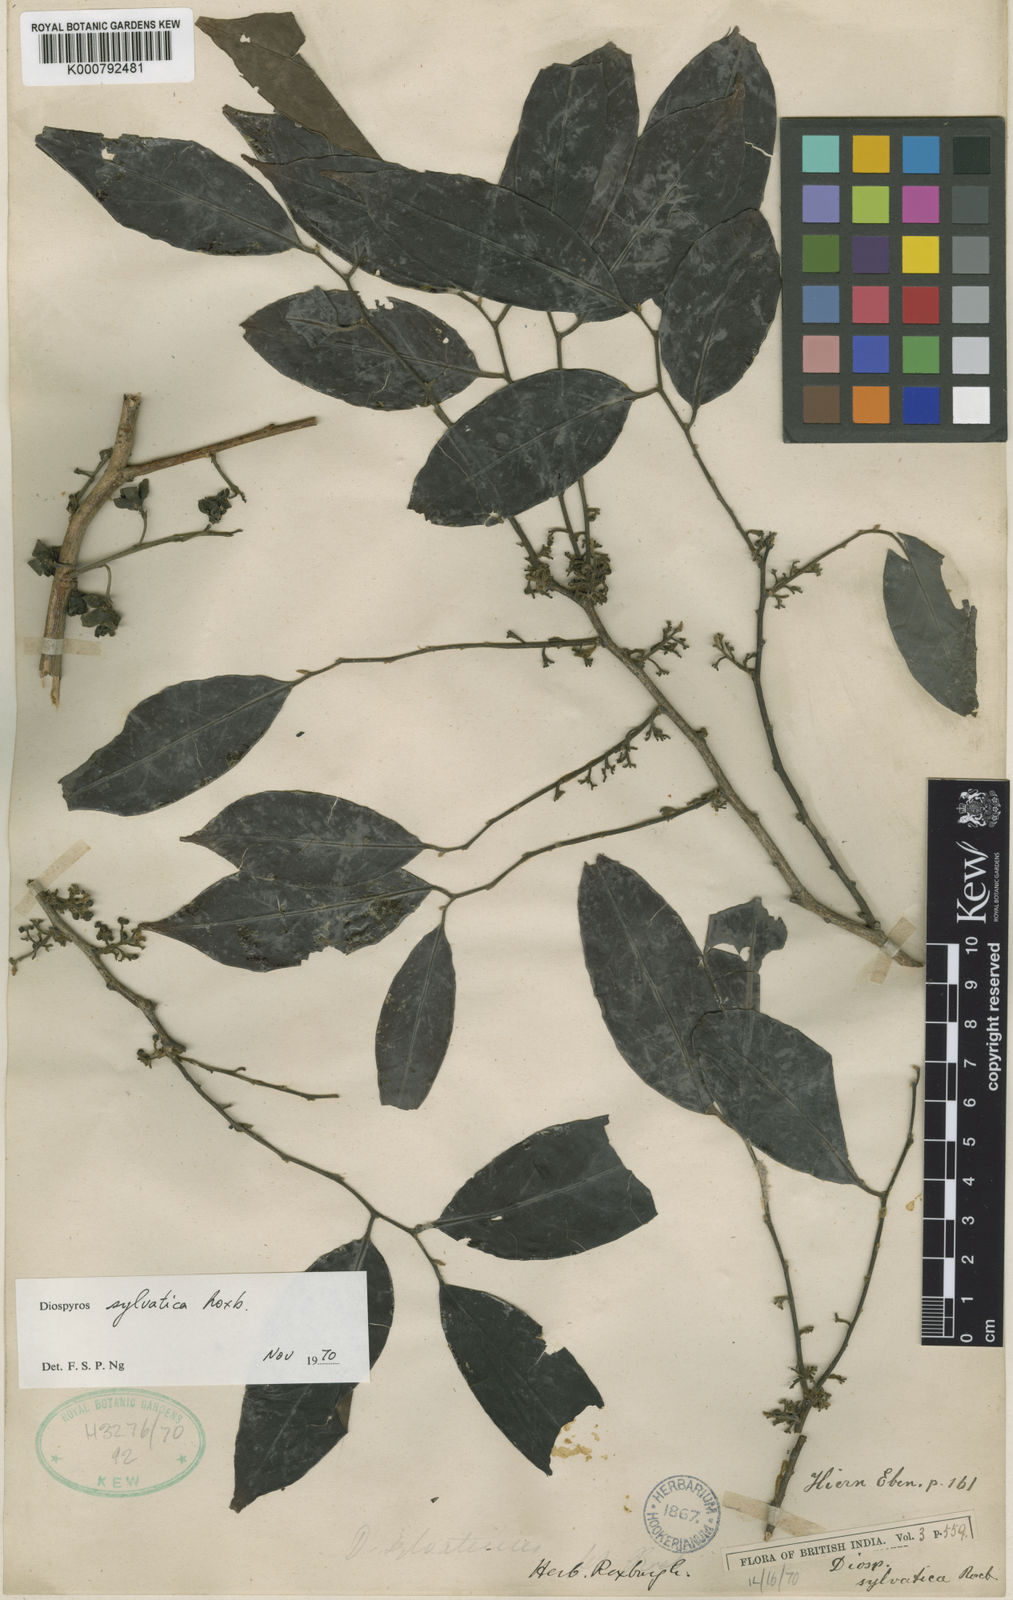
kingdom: Plantae
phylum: Tracheophyta
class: Magnoliopsida
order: Ericales
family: Ebenaceae
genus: Diospyros
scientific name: Diospyros sylvatica
